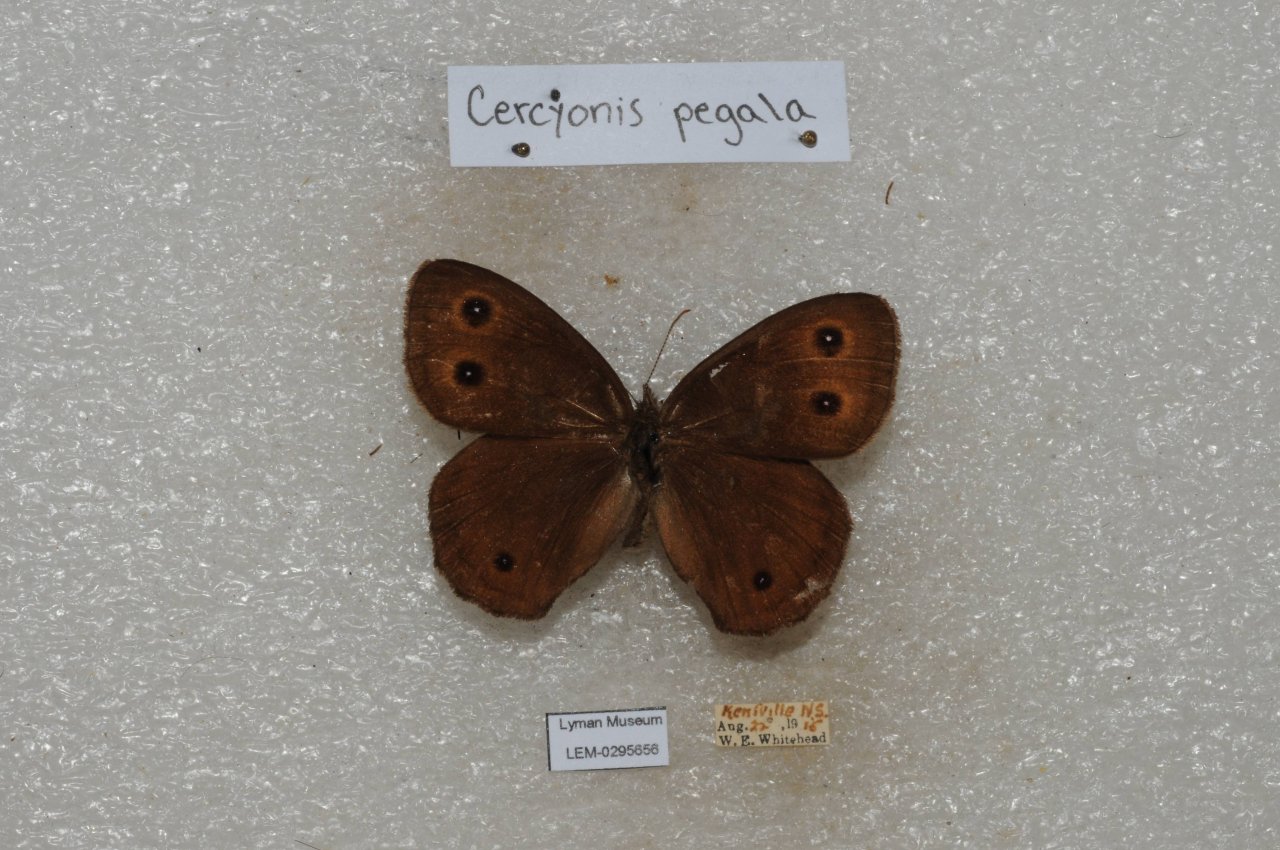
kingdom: Animalia
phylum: Arthropoda
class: Insecta
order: Lepidoptera
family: Nymphalidae
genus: Cercyonis
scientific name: Cercyonis pegala
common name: Common Wood-Nymph
